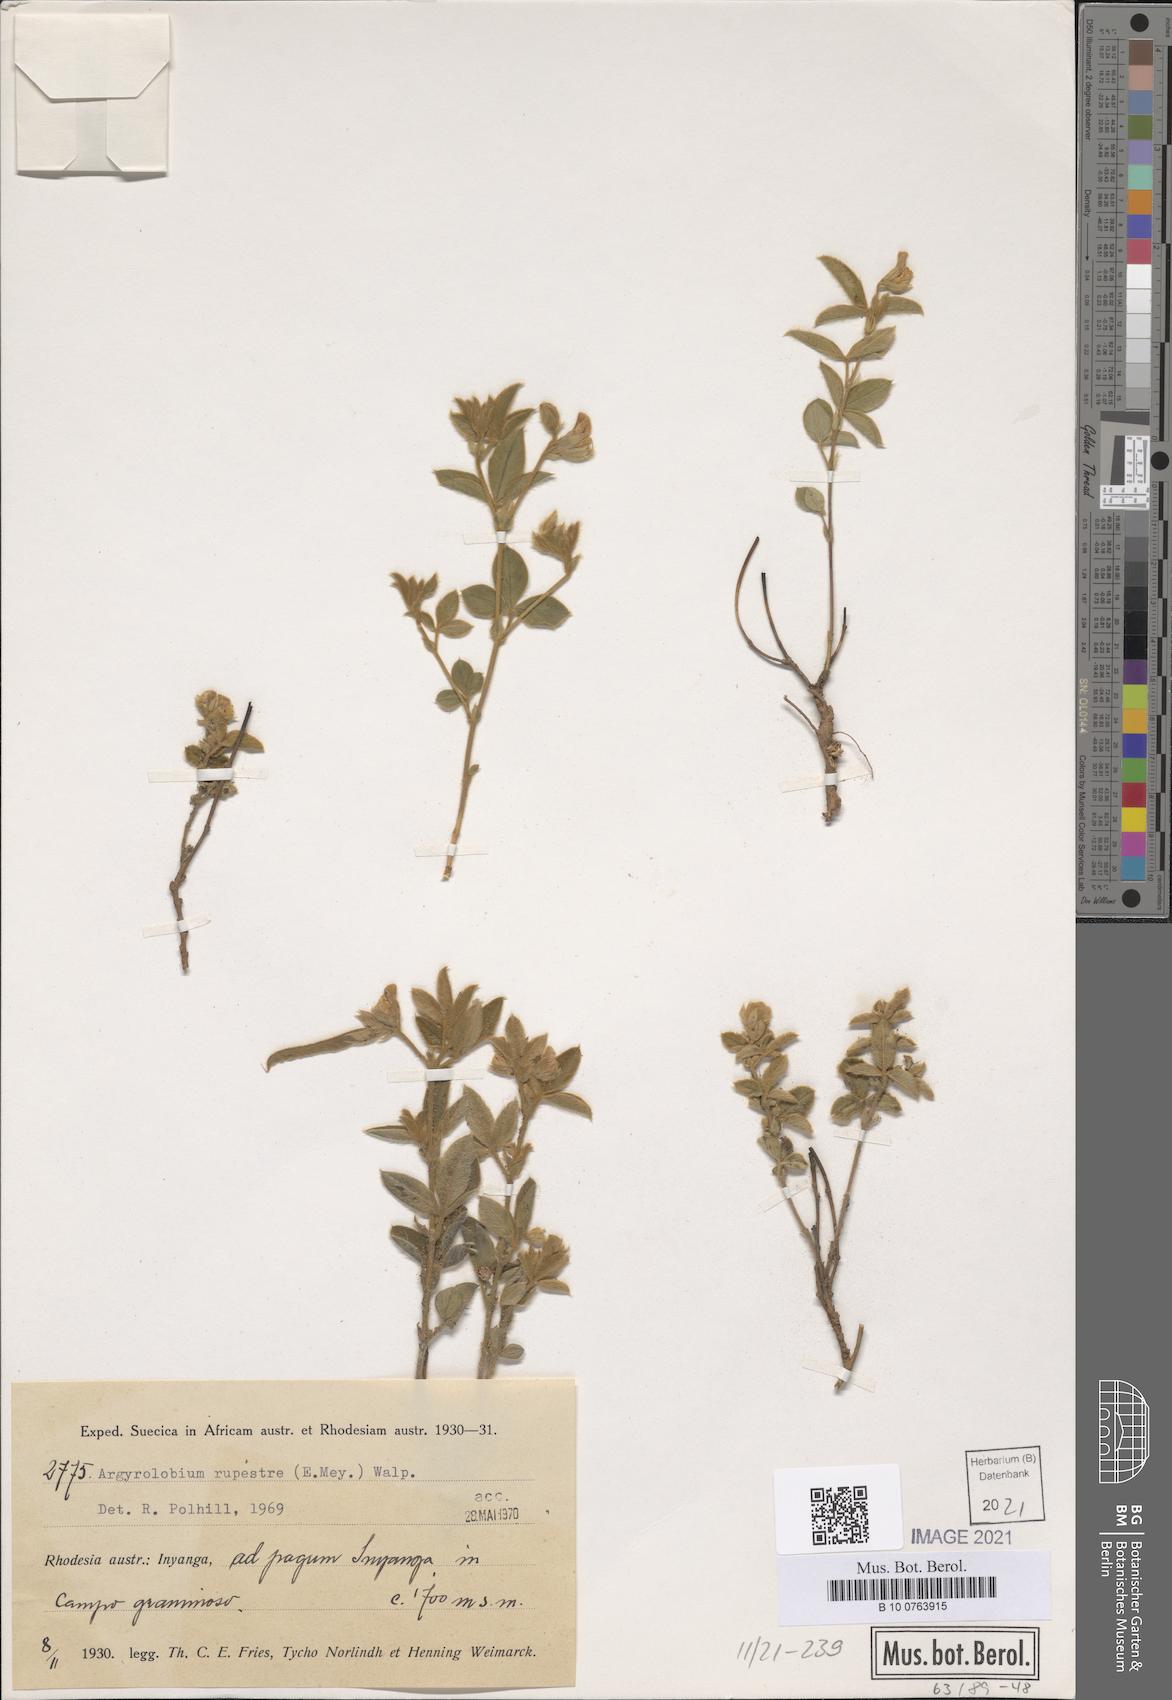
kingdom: Plantae
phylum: Tracheophyta
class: Magnoliopsida
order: Fabales
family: Fabaceae
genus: Argyrolobium
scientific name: Argyrolobium rupestre
